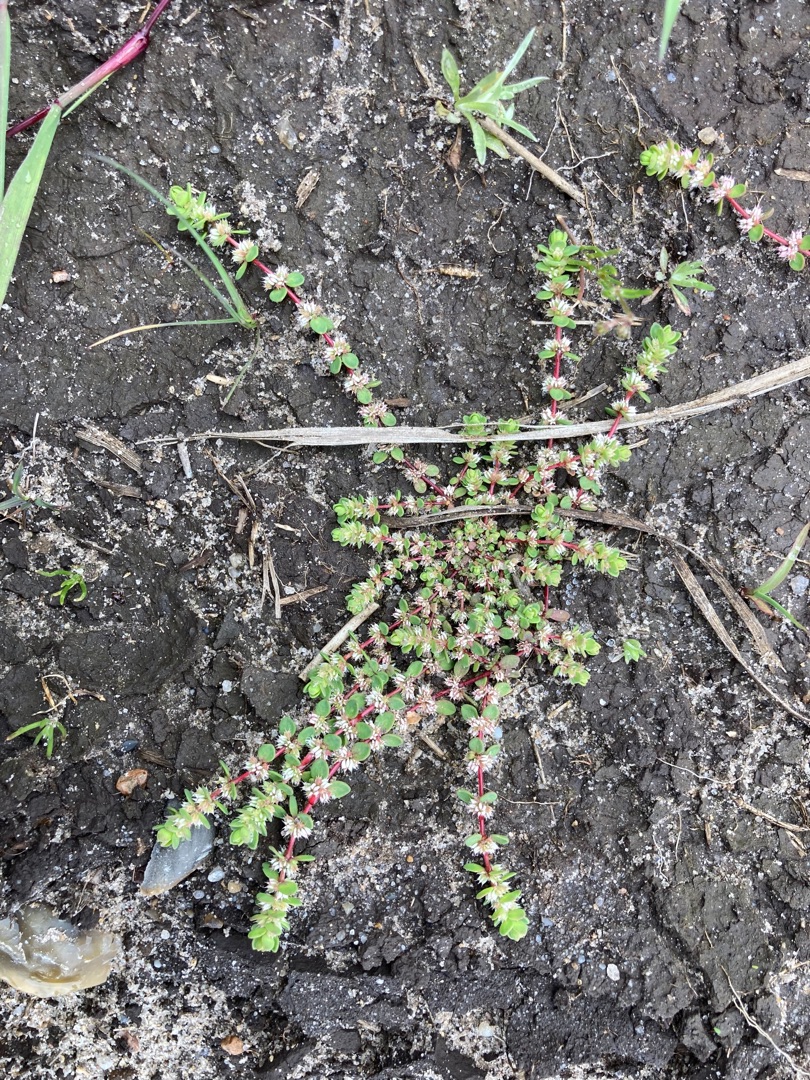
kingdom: Plantae
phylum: Tracheophyta
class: Magnoliopsida
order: Caryophyllales
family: Caryophyllaceae
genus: Illecebrum
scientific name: Illecebrum verticillatum
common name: Bruskbæger
